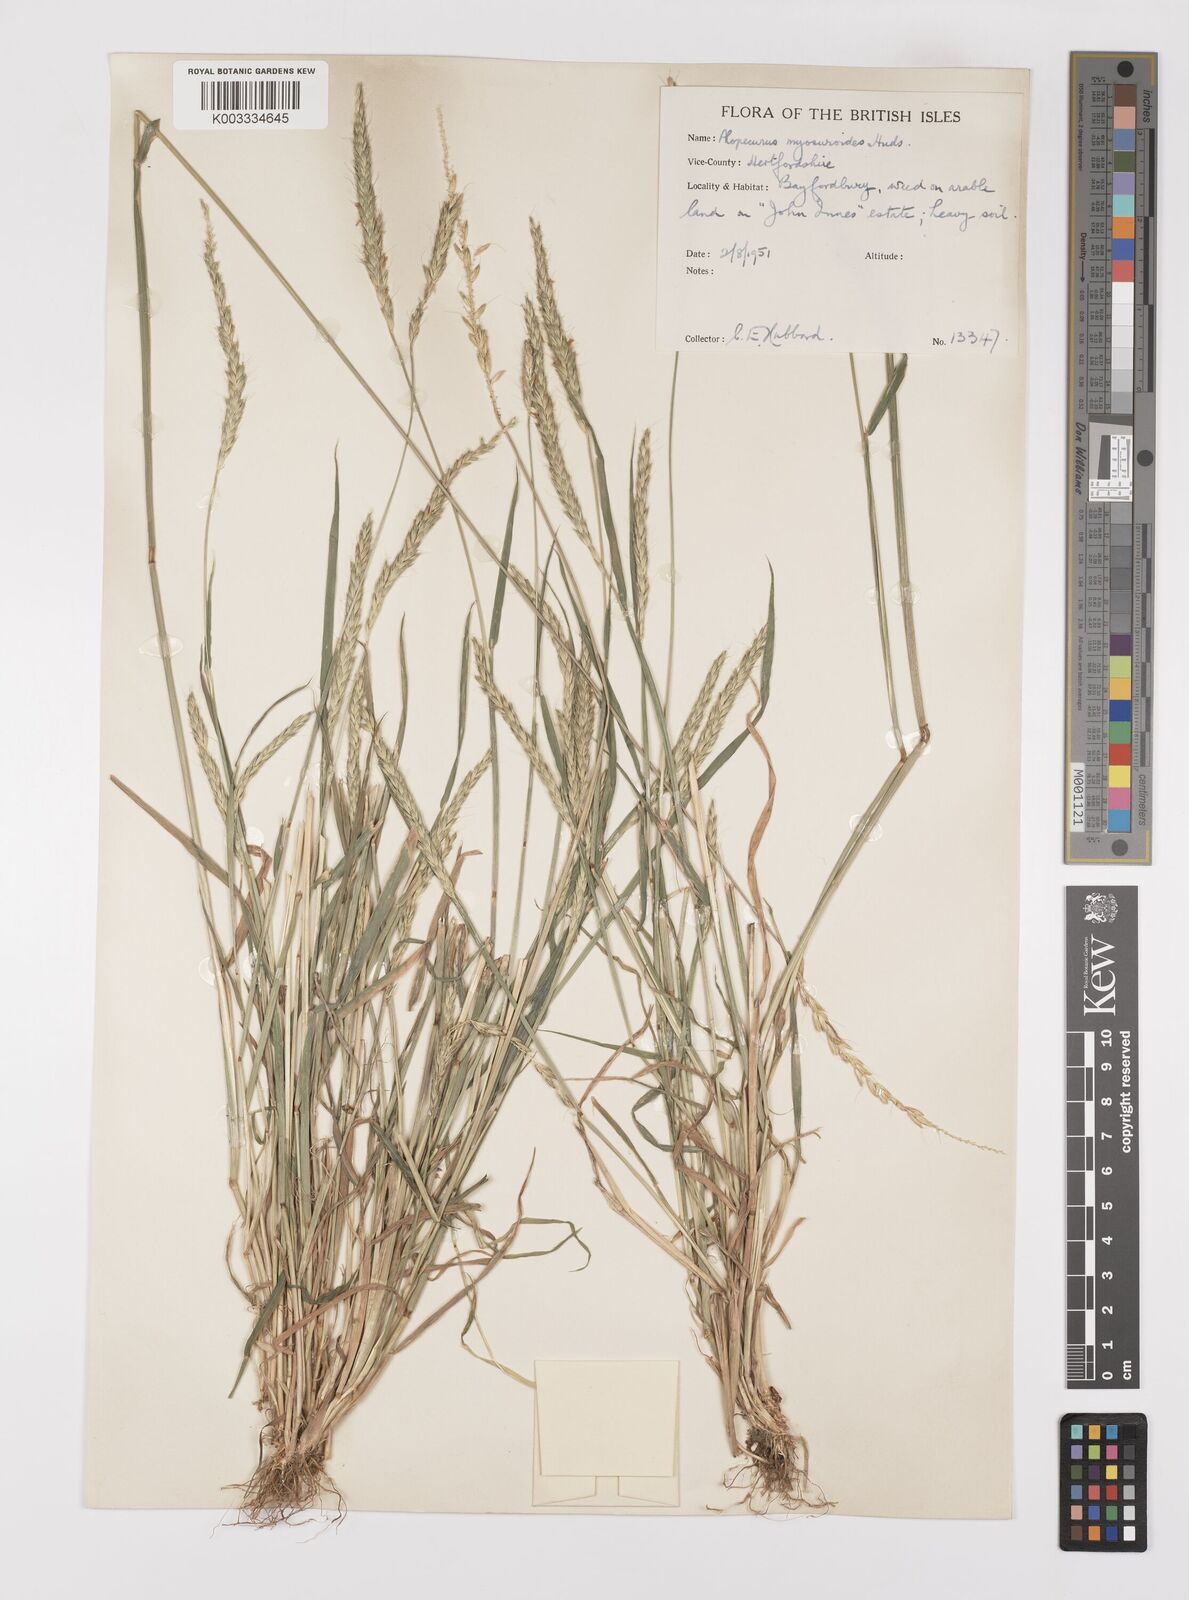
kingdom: Plantae
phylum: Tracheophyta
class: Liliopsida
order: Poales
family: Poaceae
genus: Alopecurus
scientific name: Alopecurus myosuroides
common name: Black-grass
